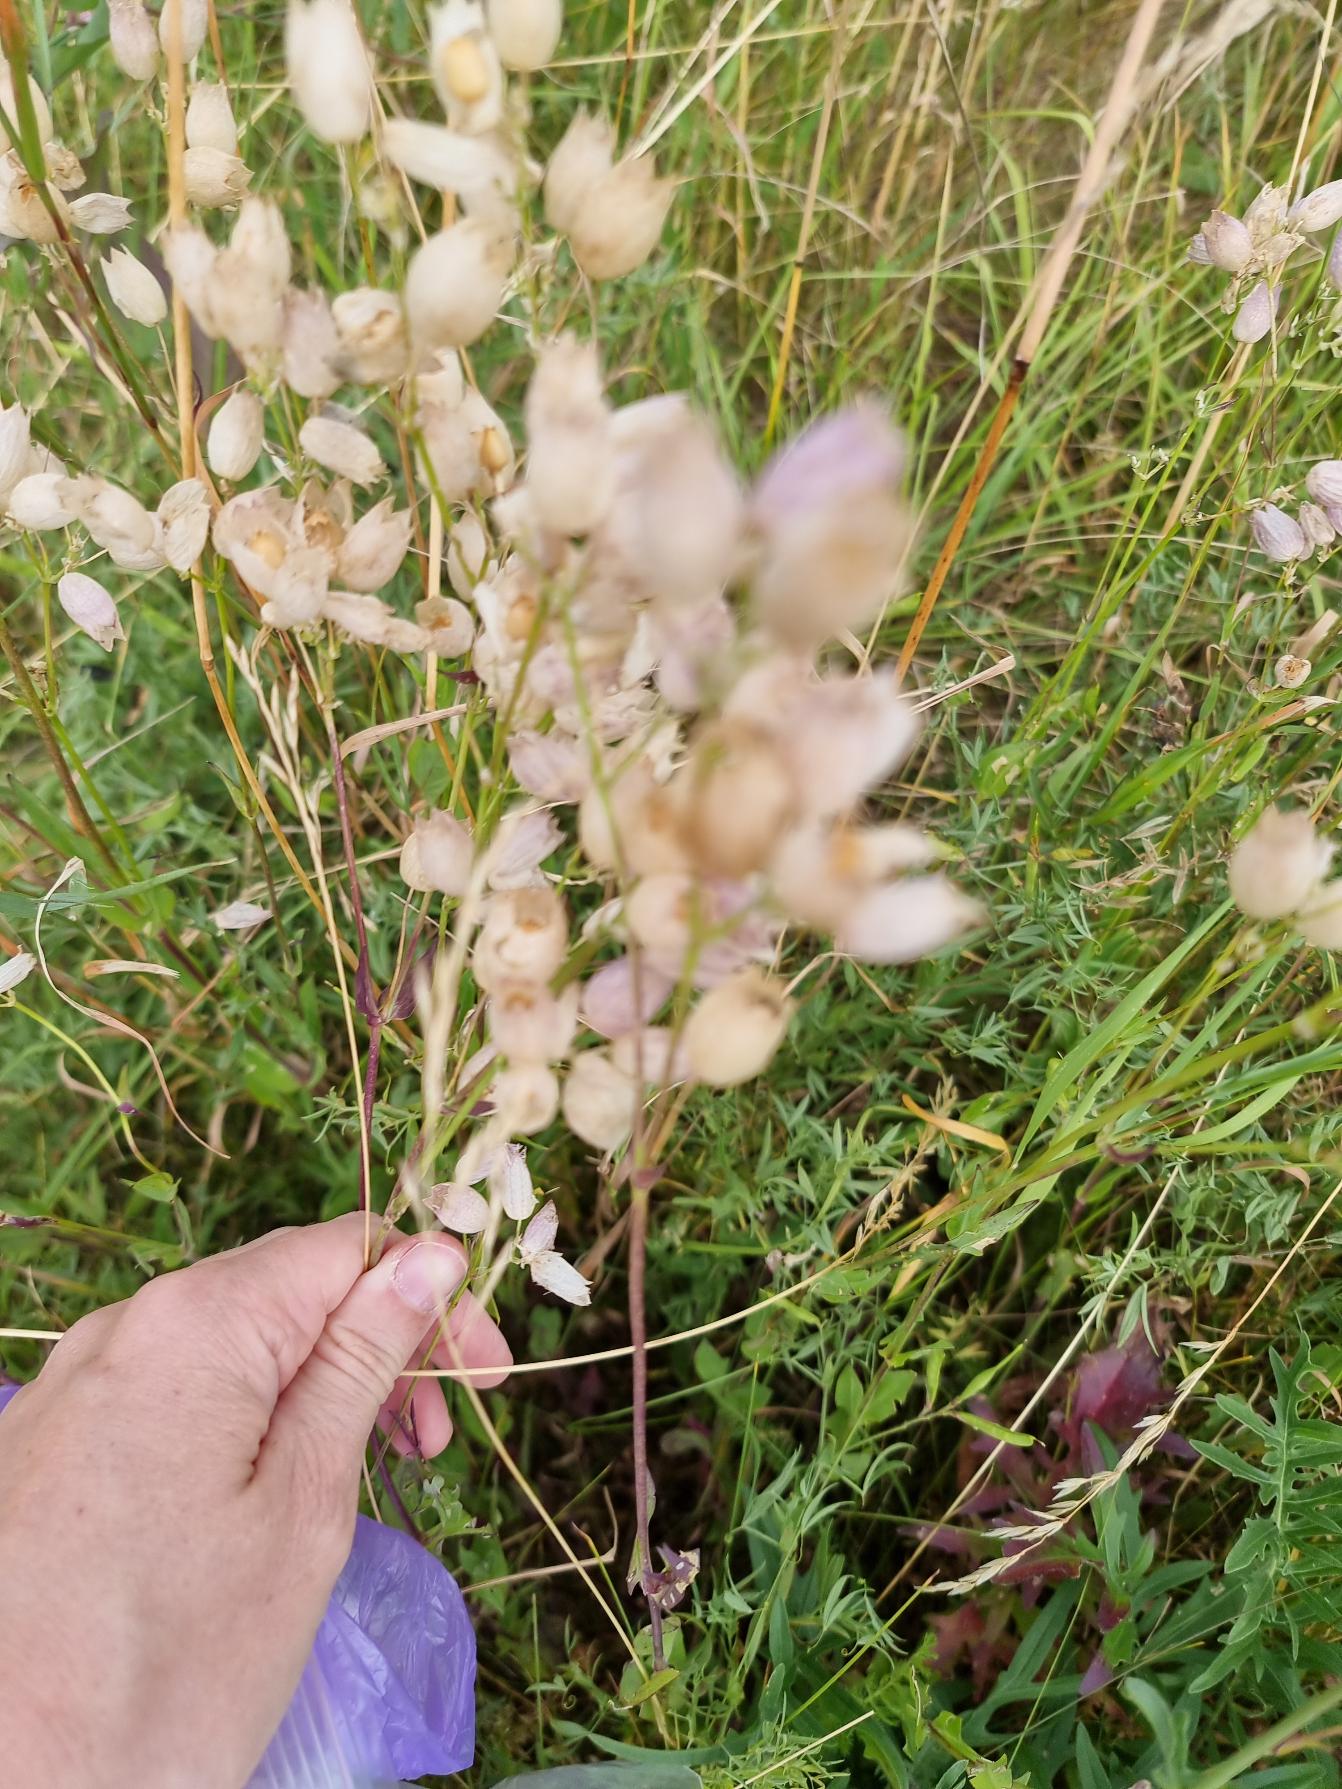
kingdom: Plantae
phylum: Tracheophyta
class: Magnoliopsida
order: Caryophyllales
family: Caryophyllaceae
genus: Silene
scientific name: Silene vulgaris
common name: Blæresmælde
